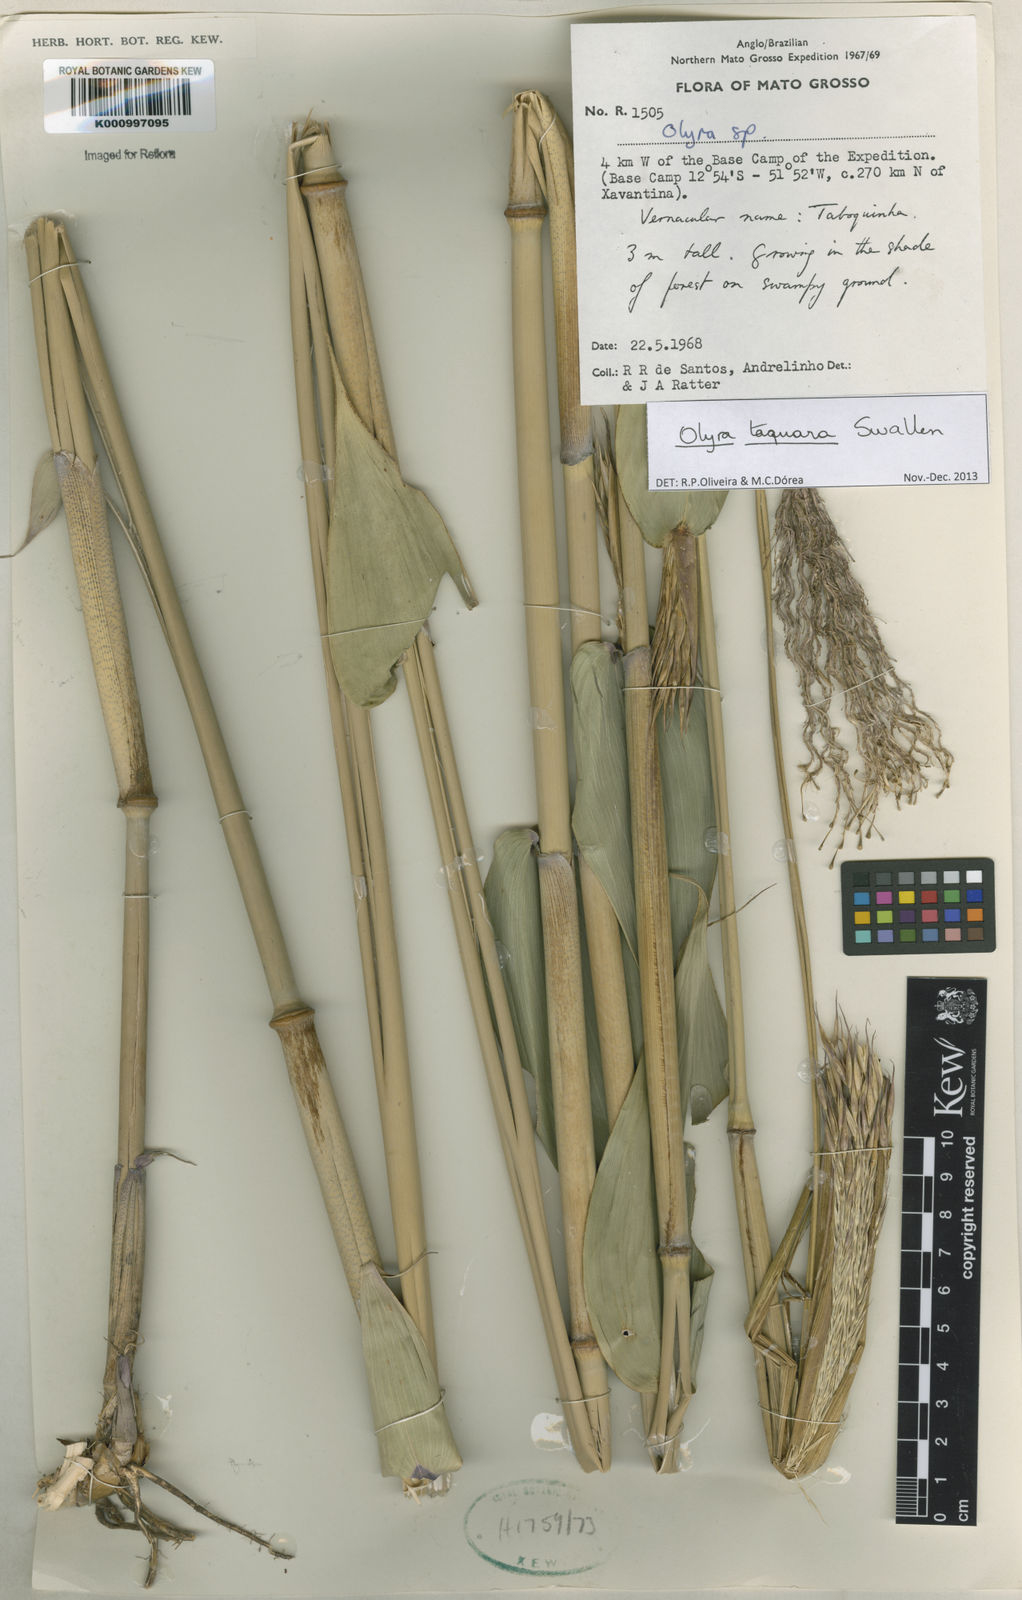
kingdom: Plantae
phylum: Tracheophyta
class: Liliopsida
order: Poales
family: Poaceae
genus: Olyra
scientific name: Olyra taquara
